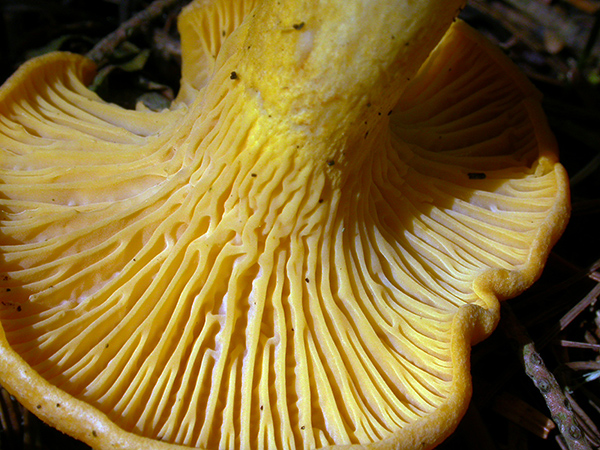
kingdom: Fungi
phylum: Basidiomycota
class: Agaricomycetes
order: Cantharellales
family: Hydnaceae
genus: Cantharellus
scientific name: Cantharellus cibarius
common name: almindelig kantarel
